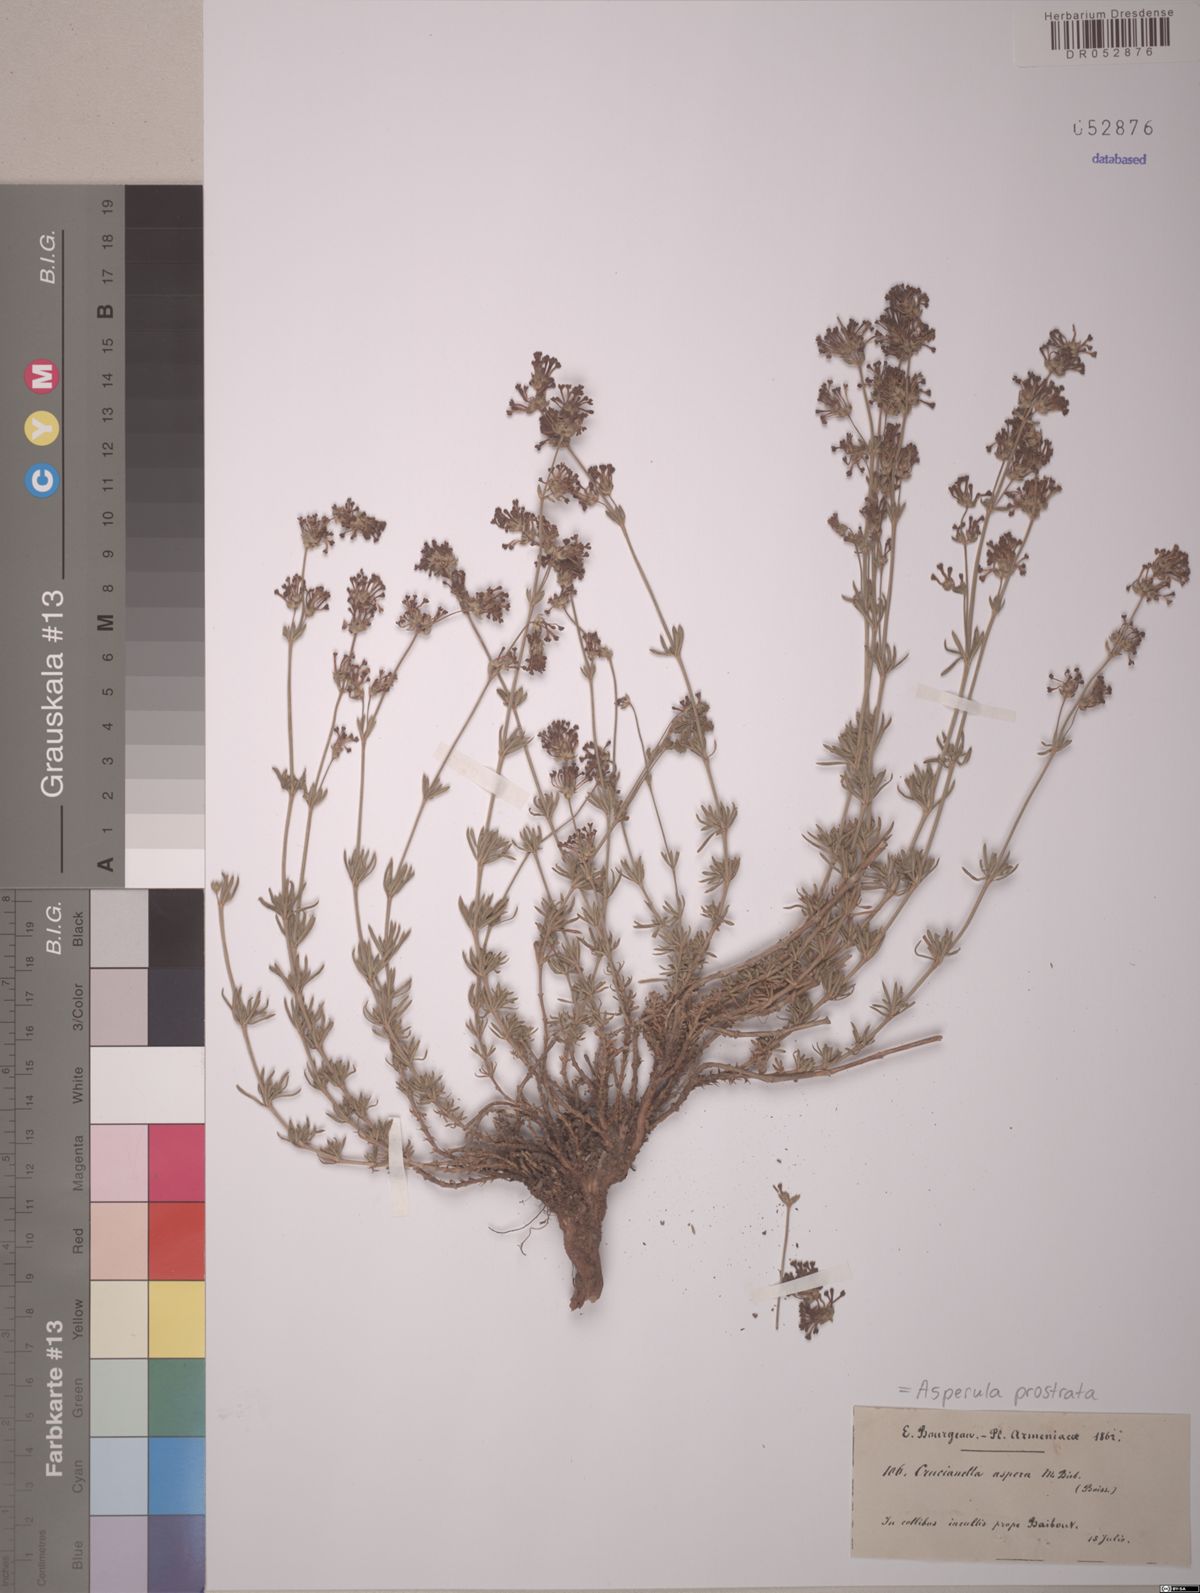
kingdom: Plantae
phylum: Tracheophyta
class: Magnoliopsida
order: Gentianales
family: Rubiaceae
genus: Asperula
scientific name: Asperula prostrata
